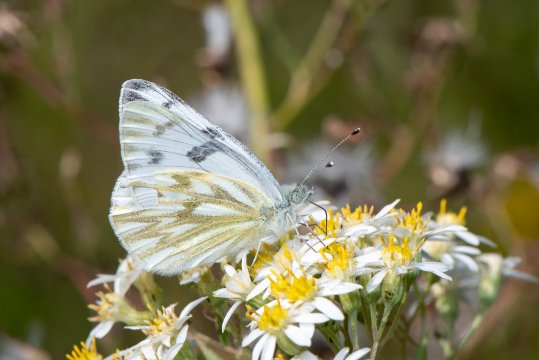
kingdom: Animalia
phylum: Arthropoda
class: Insecta
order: Lepidoptera
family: Pieridae
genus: Pontia
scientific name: Pontia occidentalis
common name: Western White
